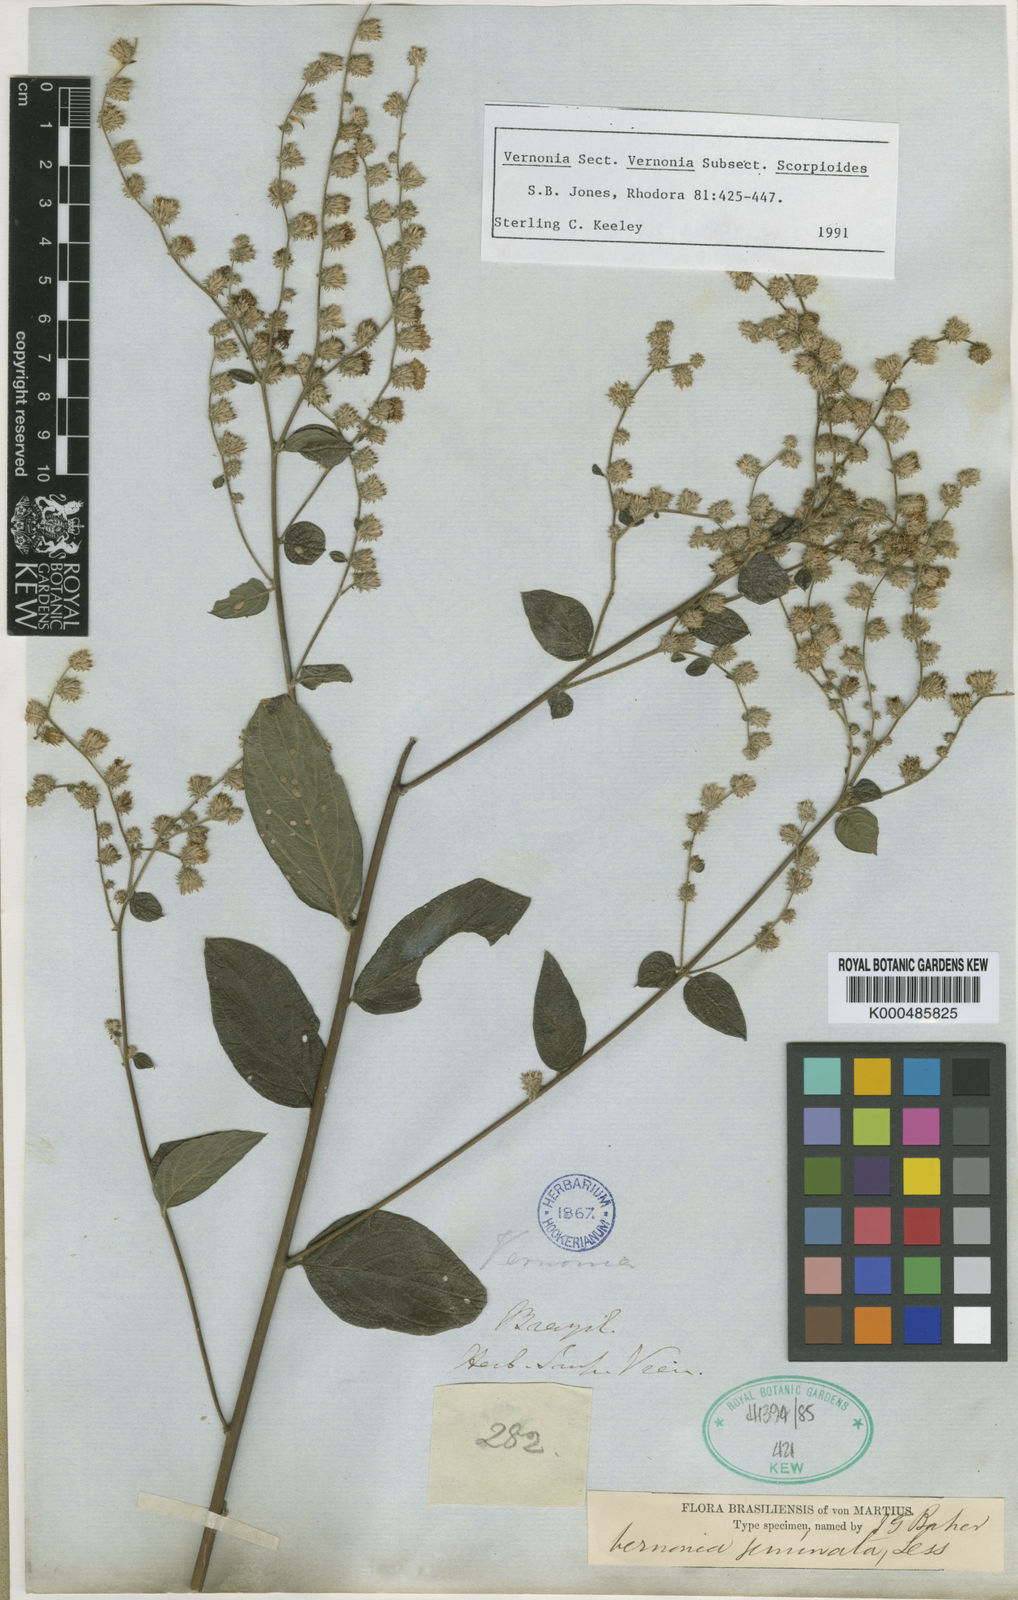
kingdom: Plantae
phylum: Tracheophyta
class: Magnoliopsida
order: Asterales
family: Asteraceae
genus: Vernonia
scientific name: Vernonia
